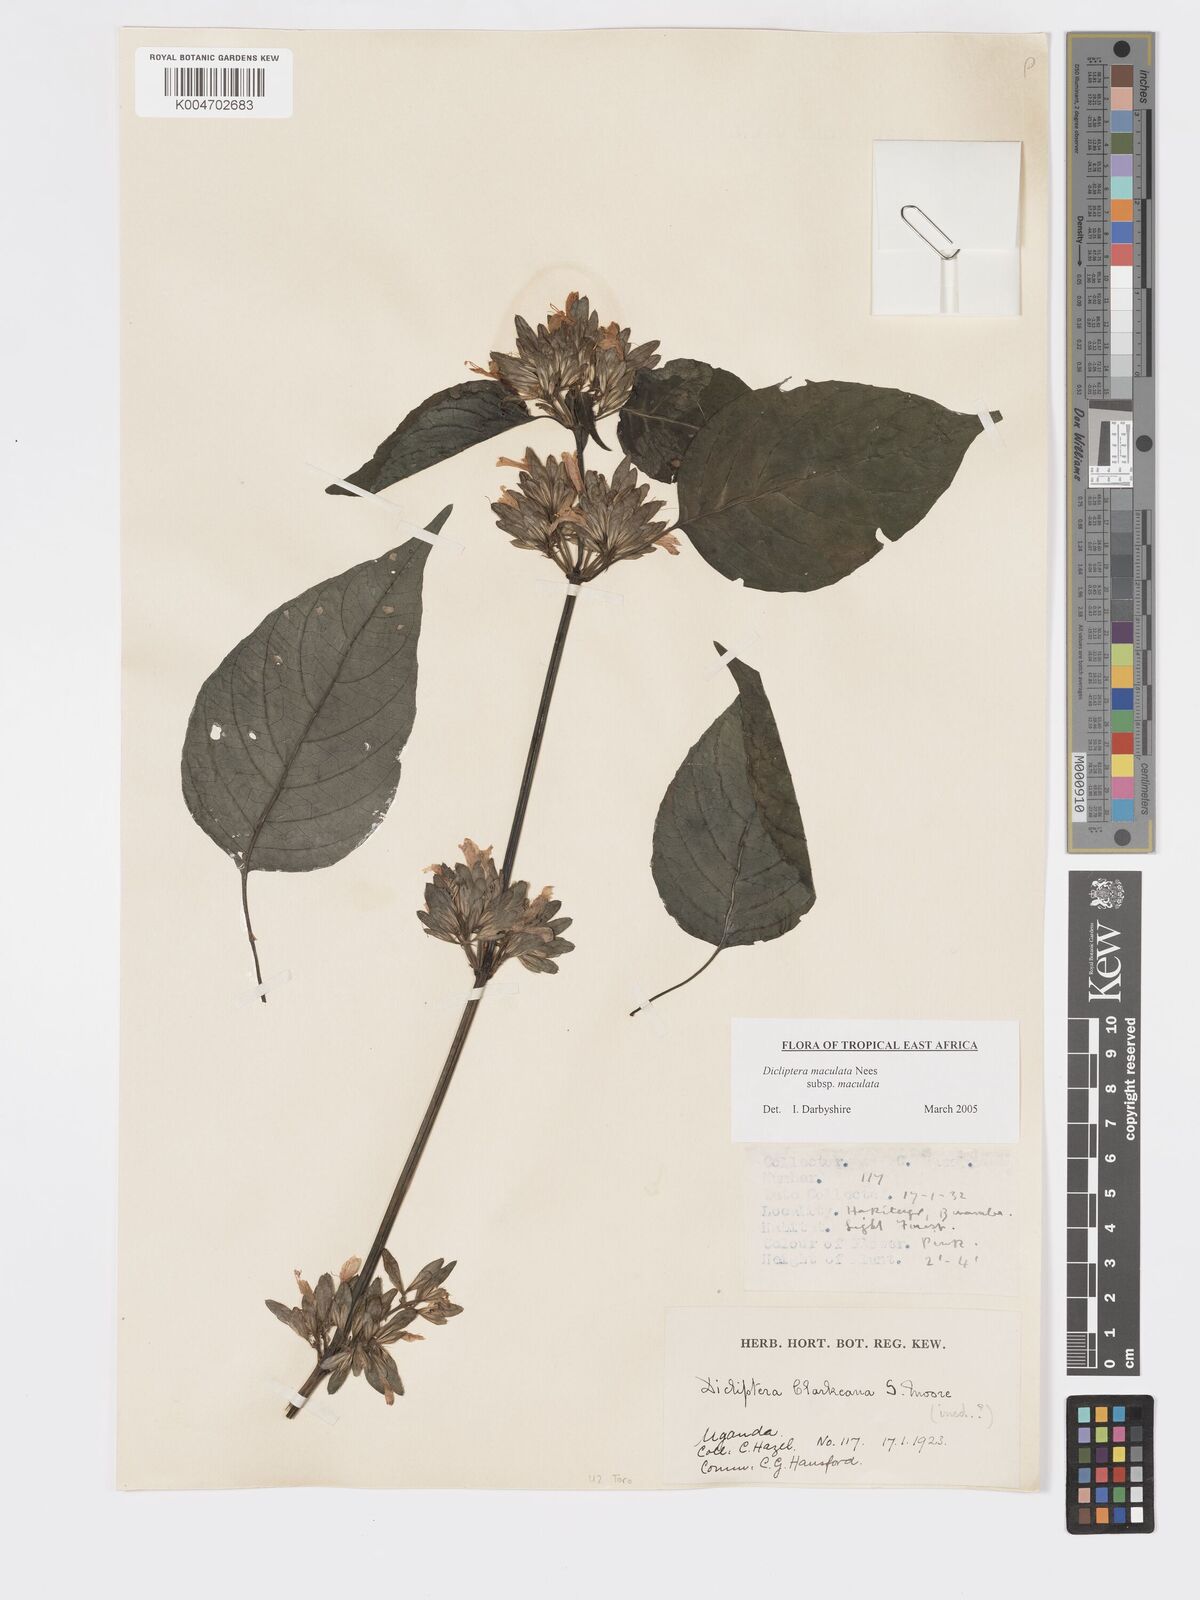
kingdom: Plantae
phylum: Tracheophyta
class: Magnoliopsida
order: Lamiales
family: Acanthaceae
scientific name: Acanthaceae
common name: Acanthaceae
